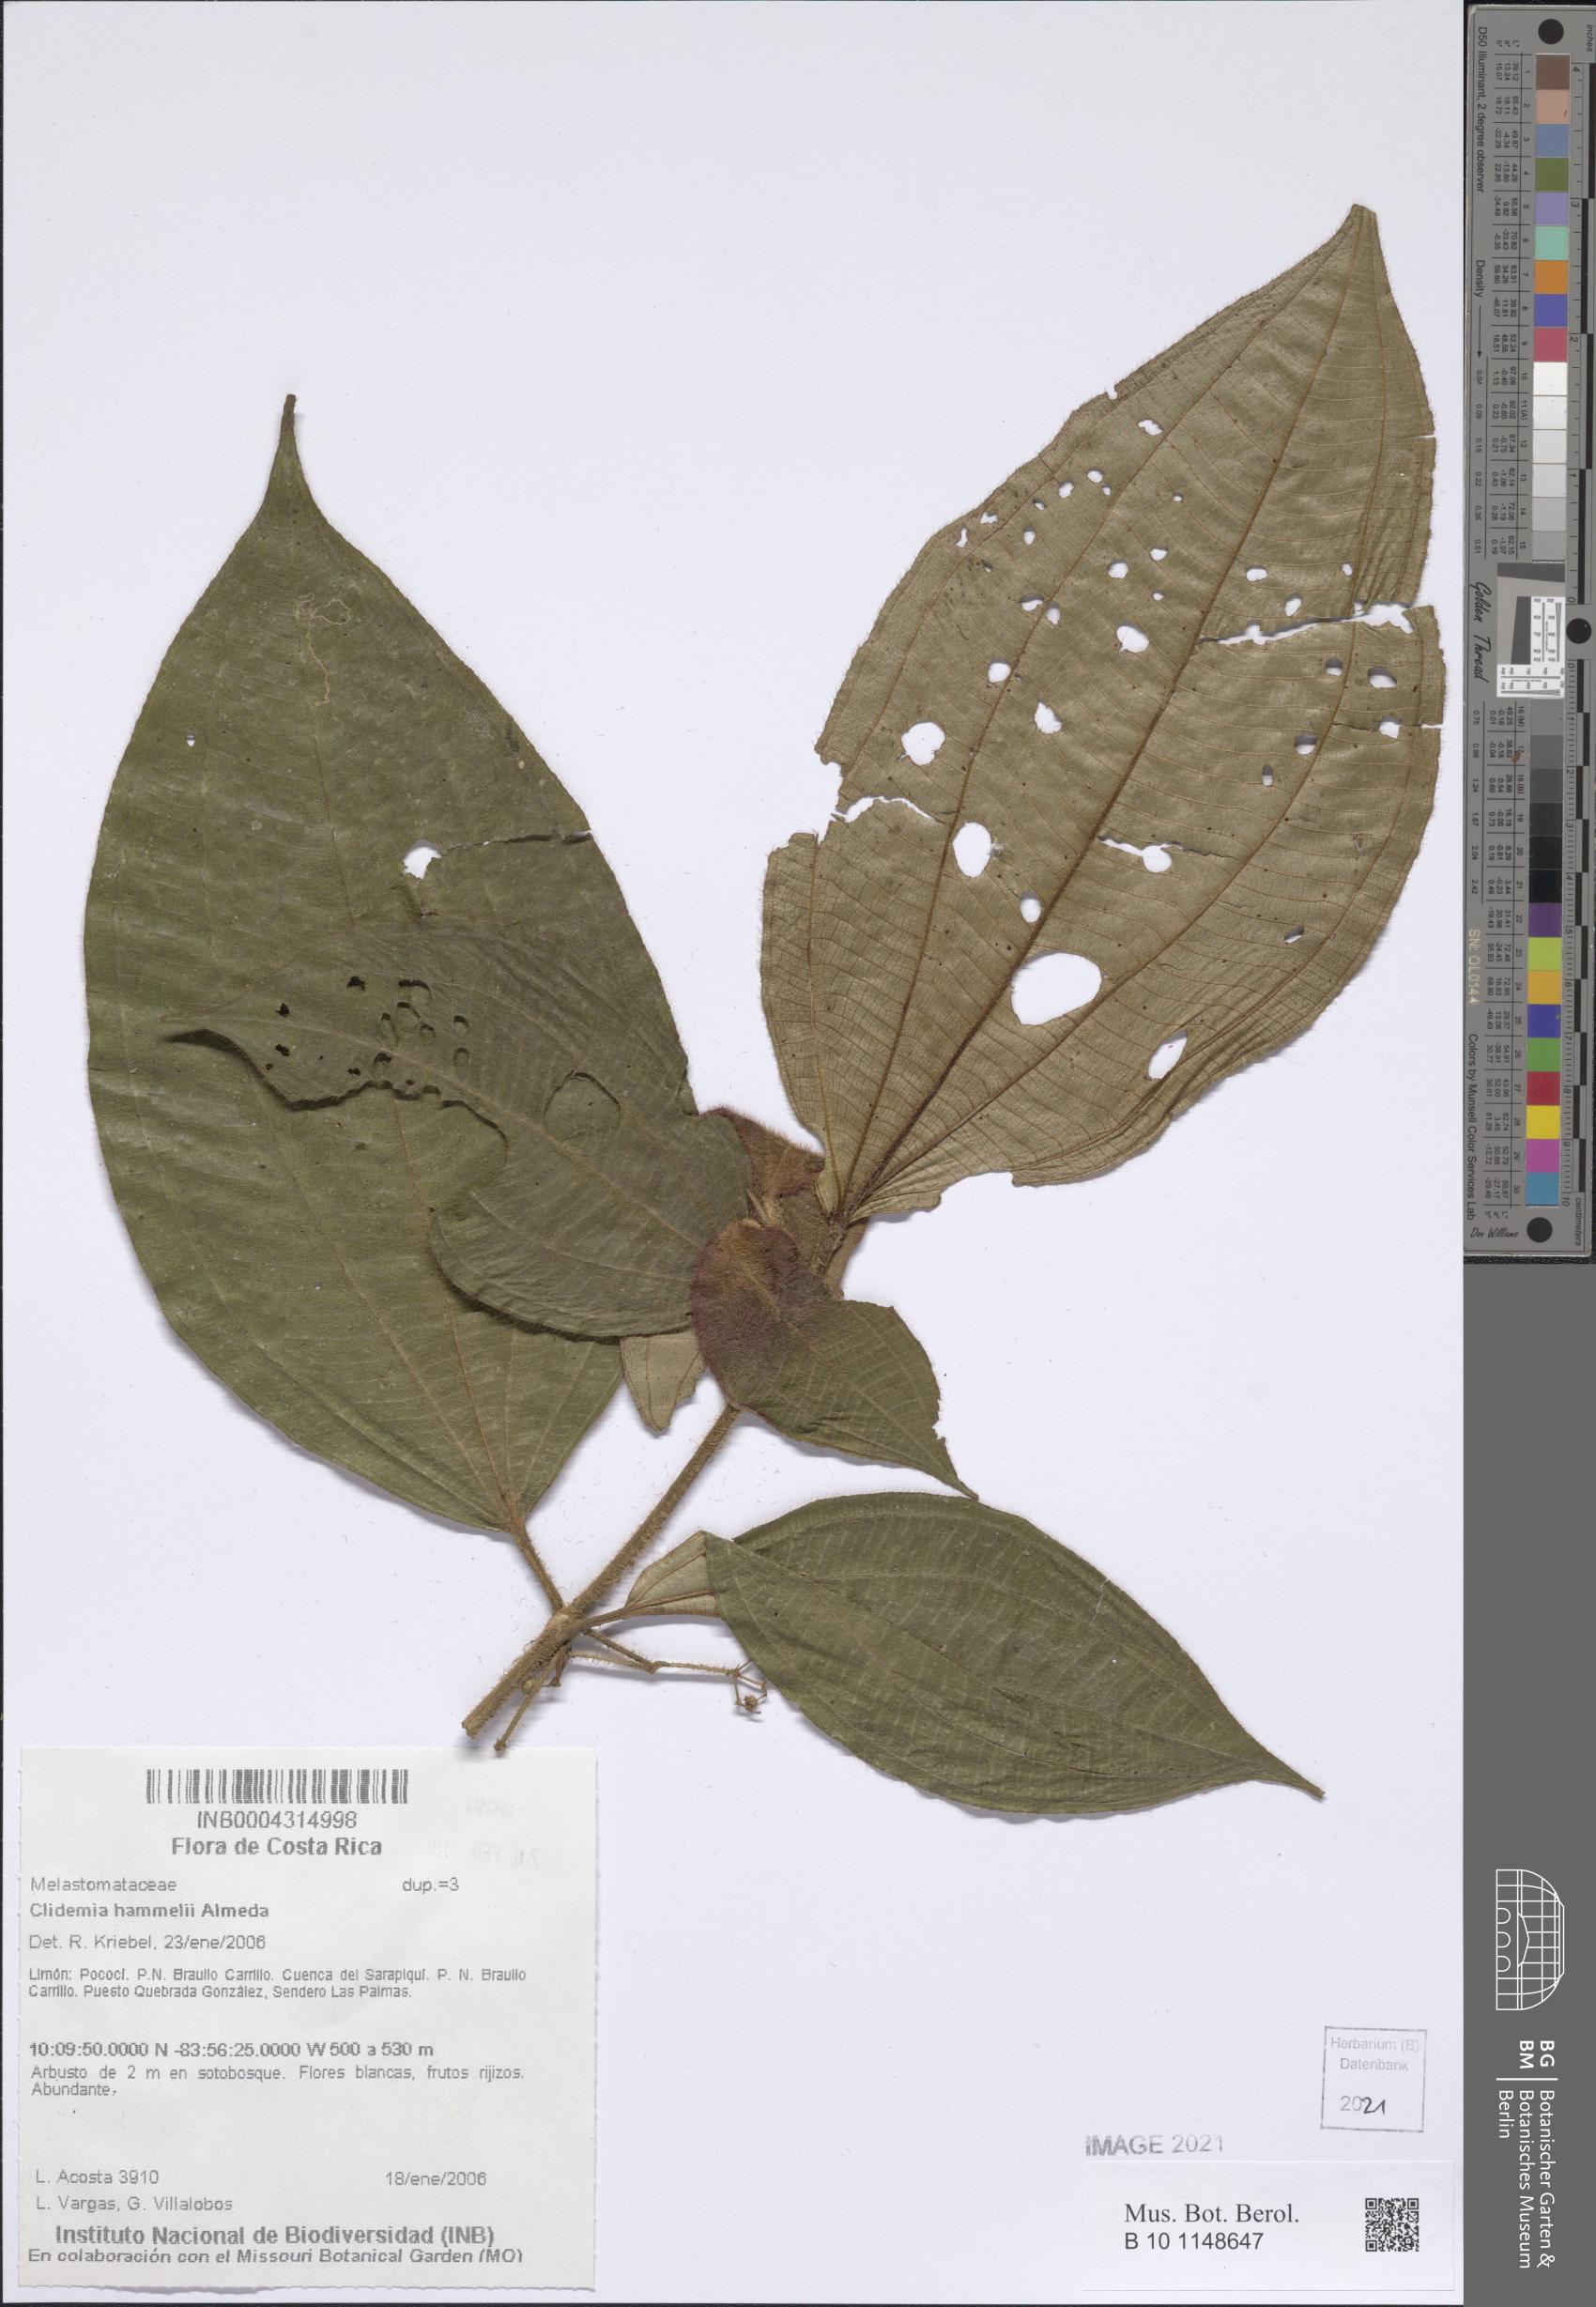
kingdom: Plantae
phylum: Tracheophyta
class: Magnoliopsida
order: Myrtales
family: Melastomataceae
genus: Miconia
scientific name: Miconia hammelii
